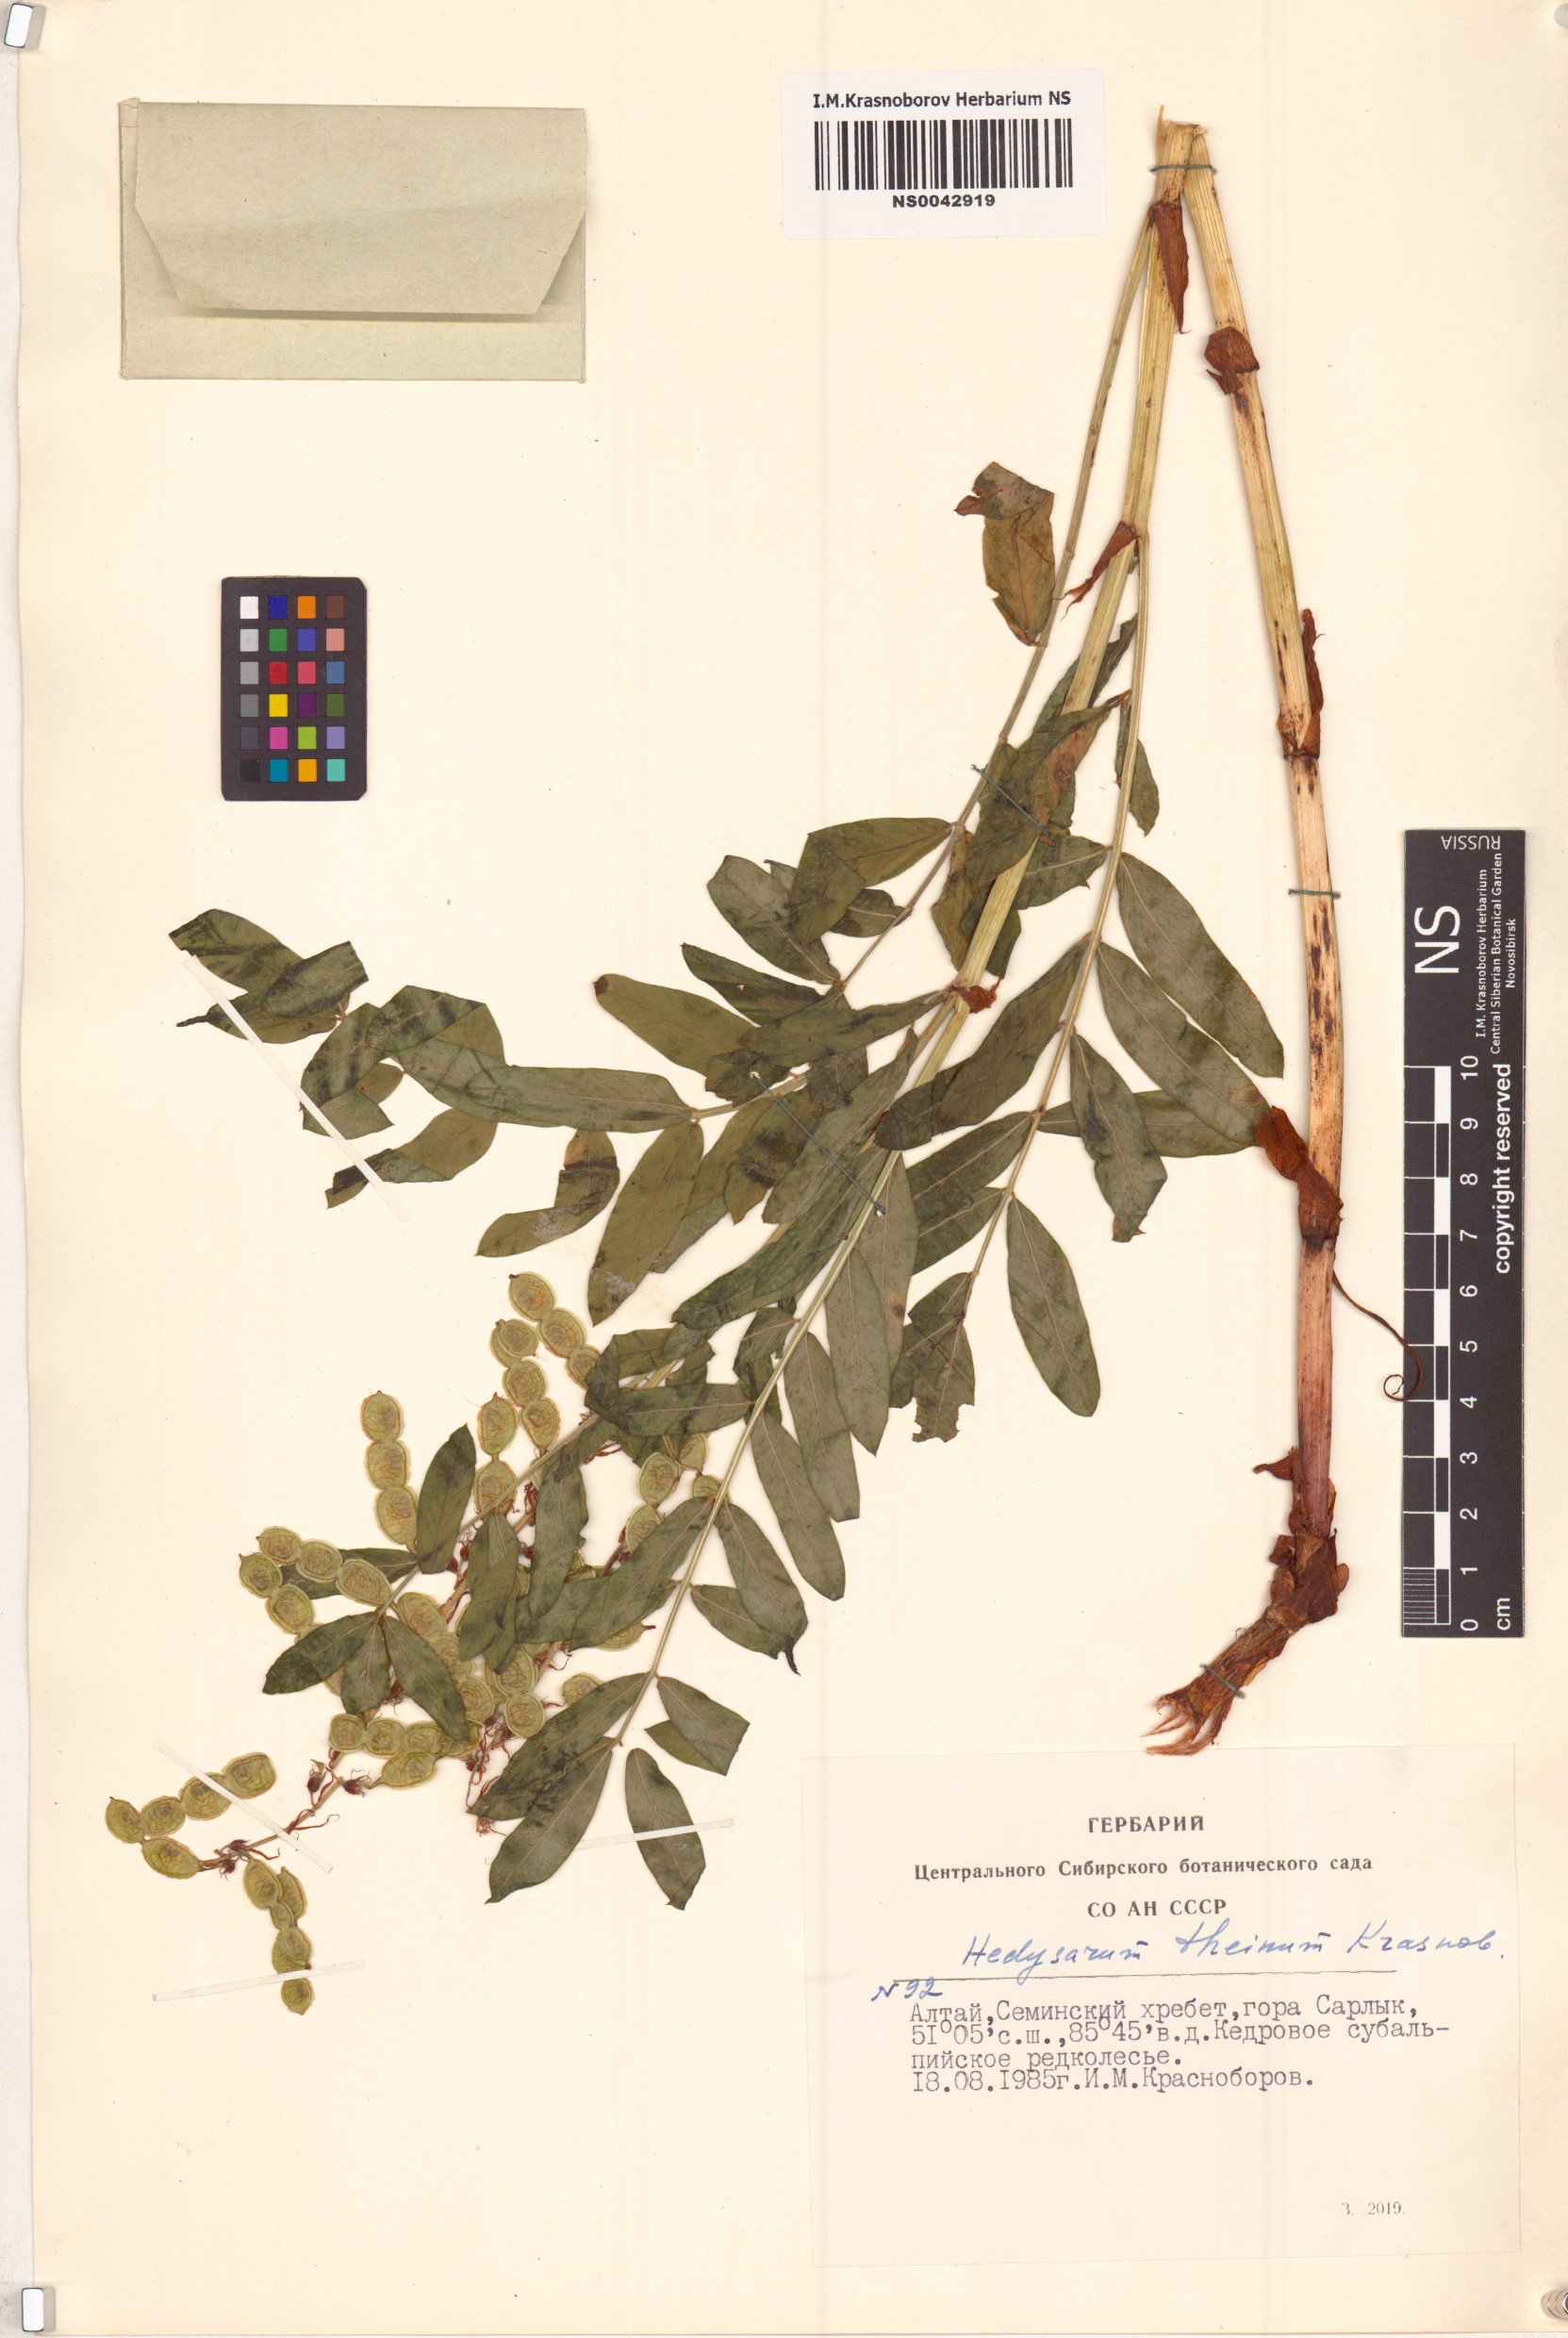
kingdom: Plantae
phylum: Tracheophyta
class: Magnoliopsida
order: Fabales
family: Fabaceae
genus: Hedysarum
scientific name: Hedysarum theinum
